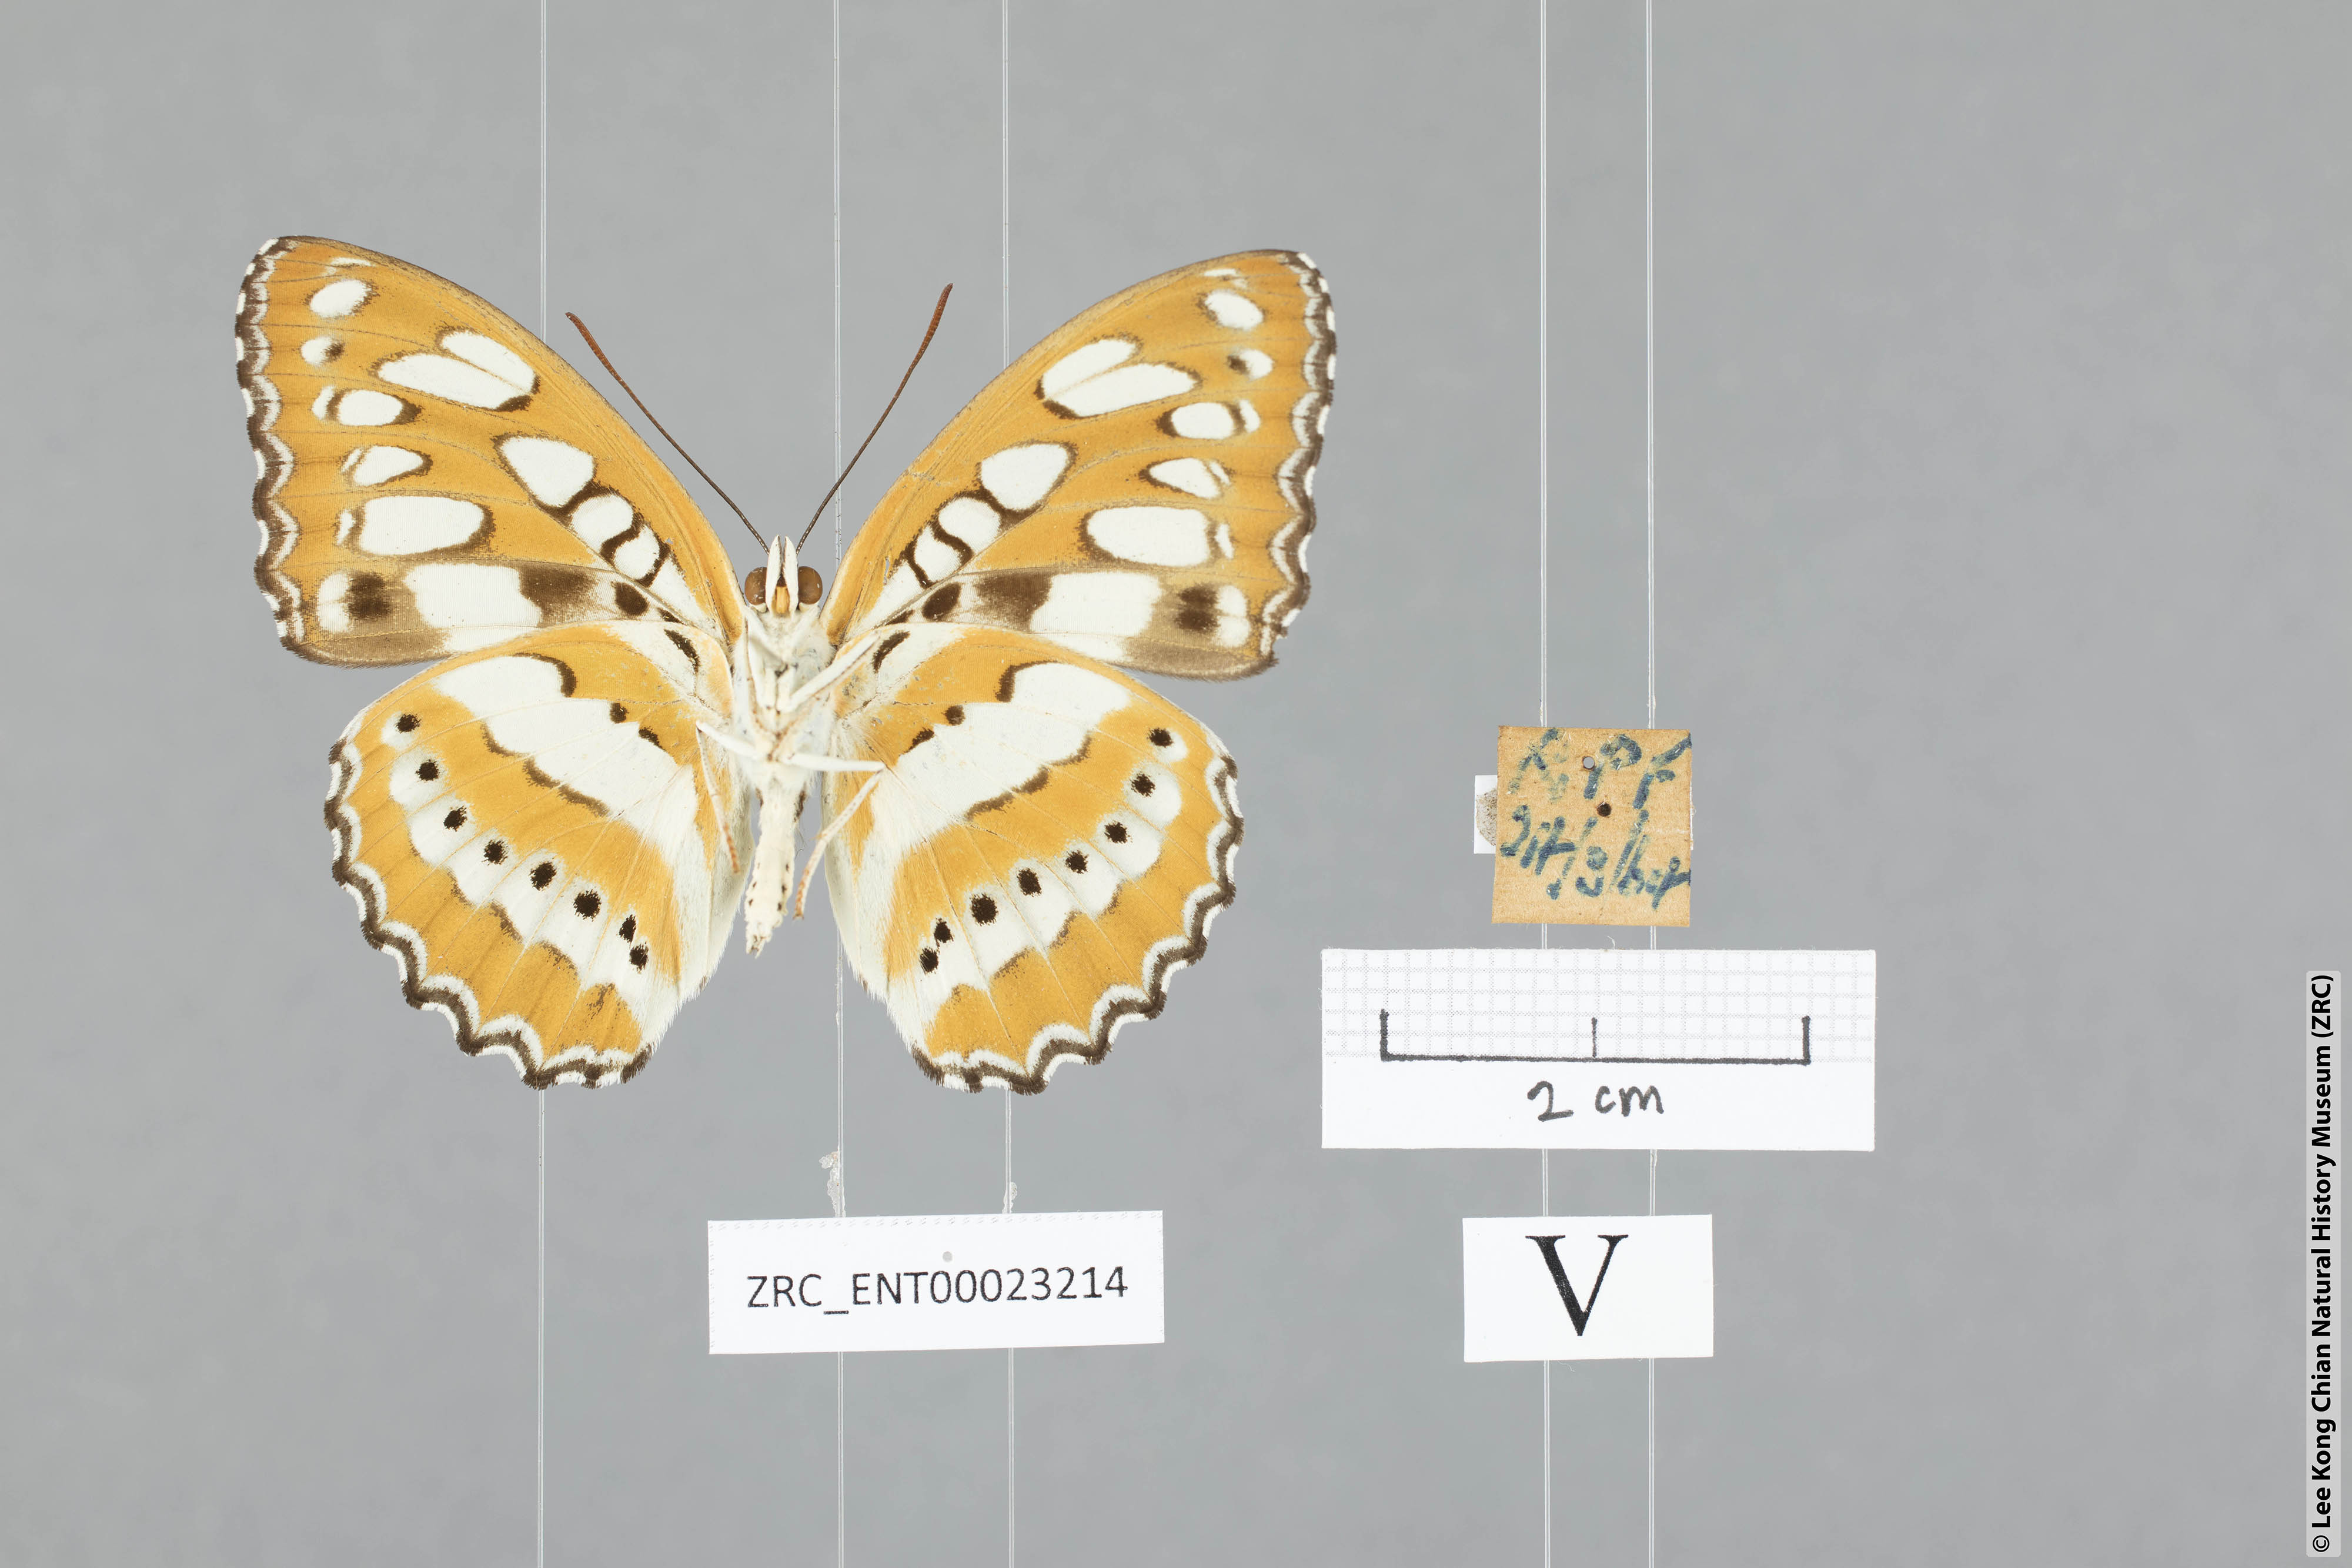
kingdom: Animalia
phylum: Arthropoda
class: Insecta
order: Lepidoptera
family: Nymphalidae
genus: Parathyma
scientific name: Parathyma perius
